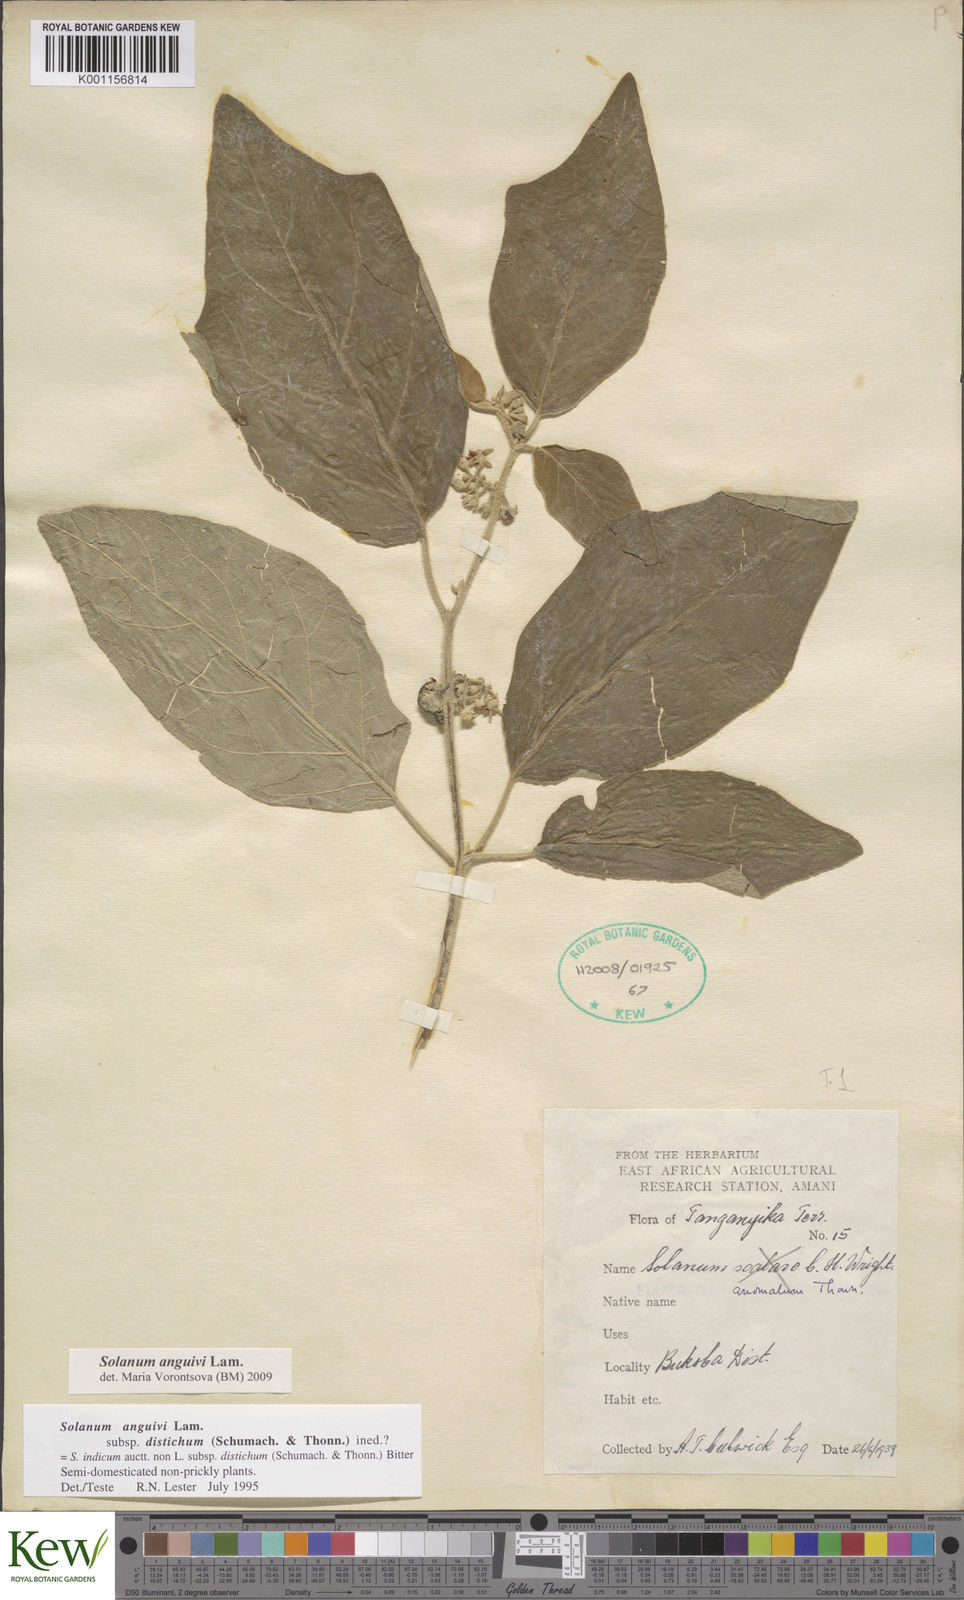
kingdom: Plantae
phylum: Tracheophyta
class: Magnoliopsida
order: Solanales
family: Solanaceae
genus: Solanum
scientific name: Solanum anguivi
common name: Forest bitterberry
